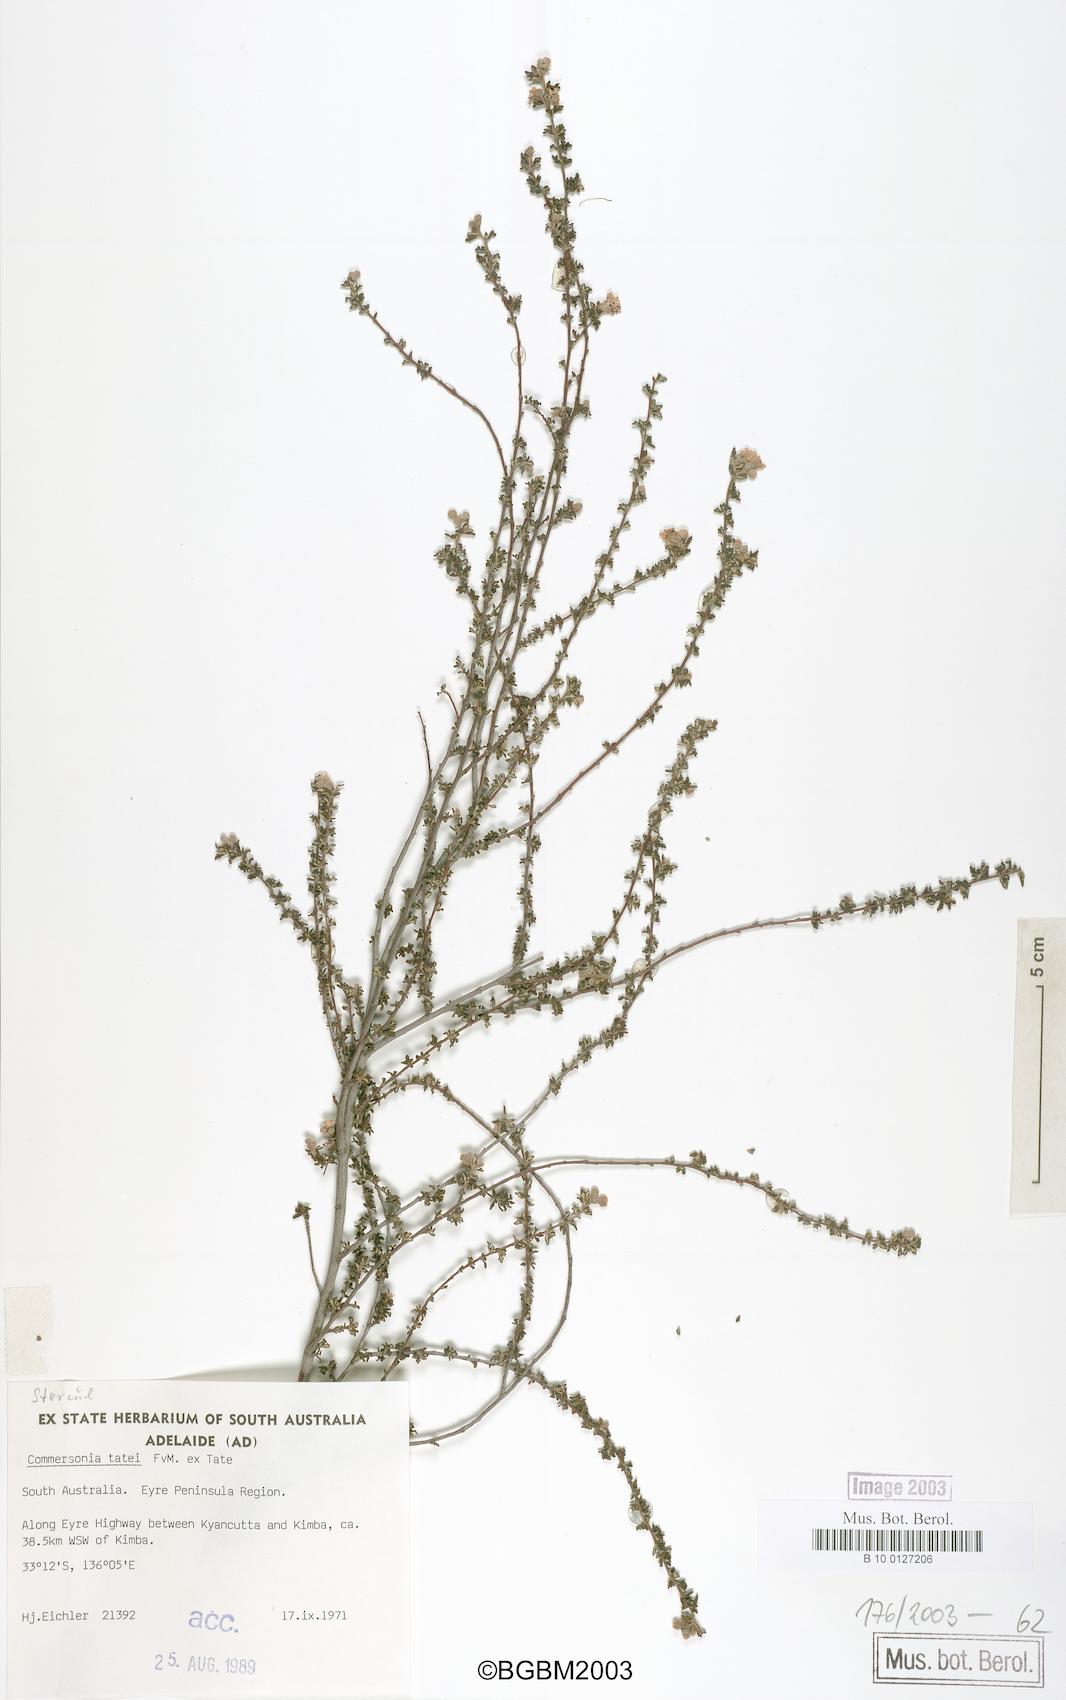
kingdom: Plantae
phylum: Tracheophyta
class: Magnoliopsida
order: Malvales
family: Malvaceae
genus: Androcalva
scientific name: Androcalva tatei
